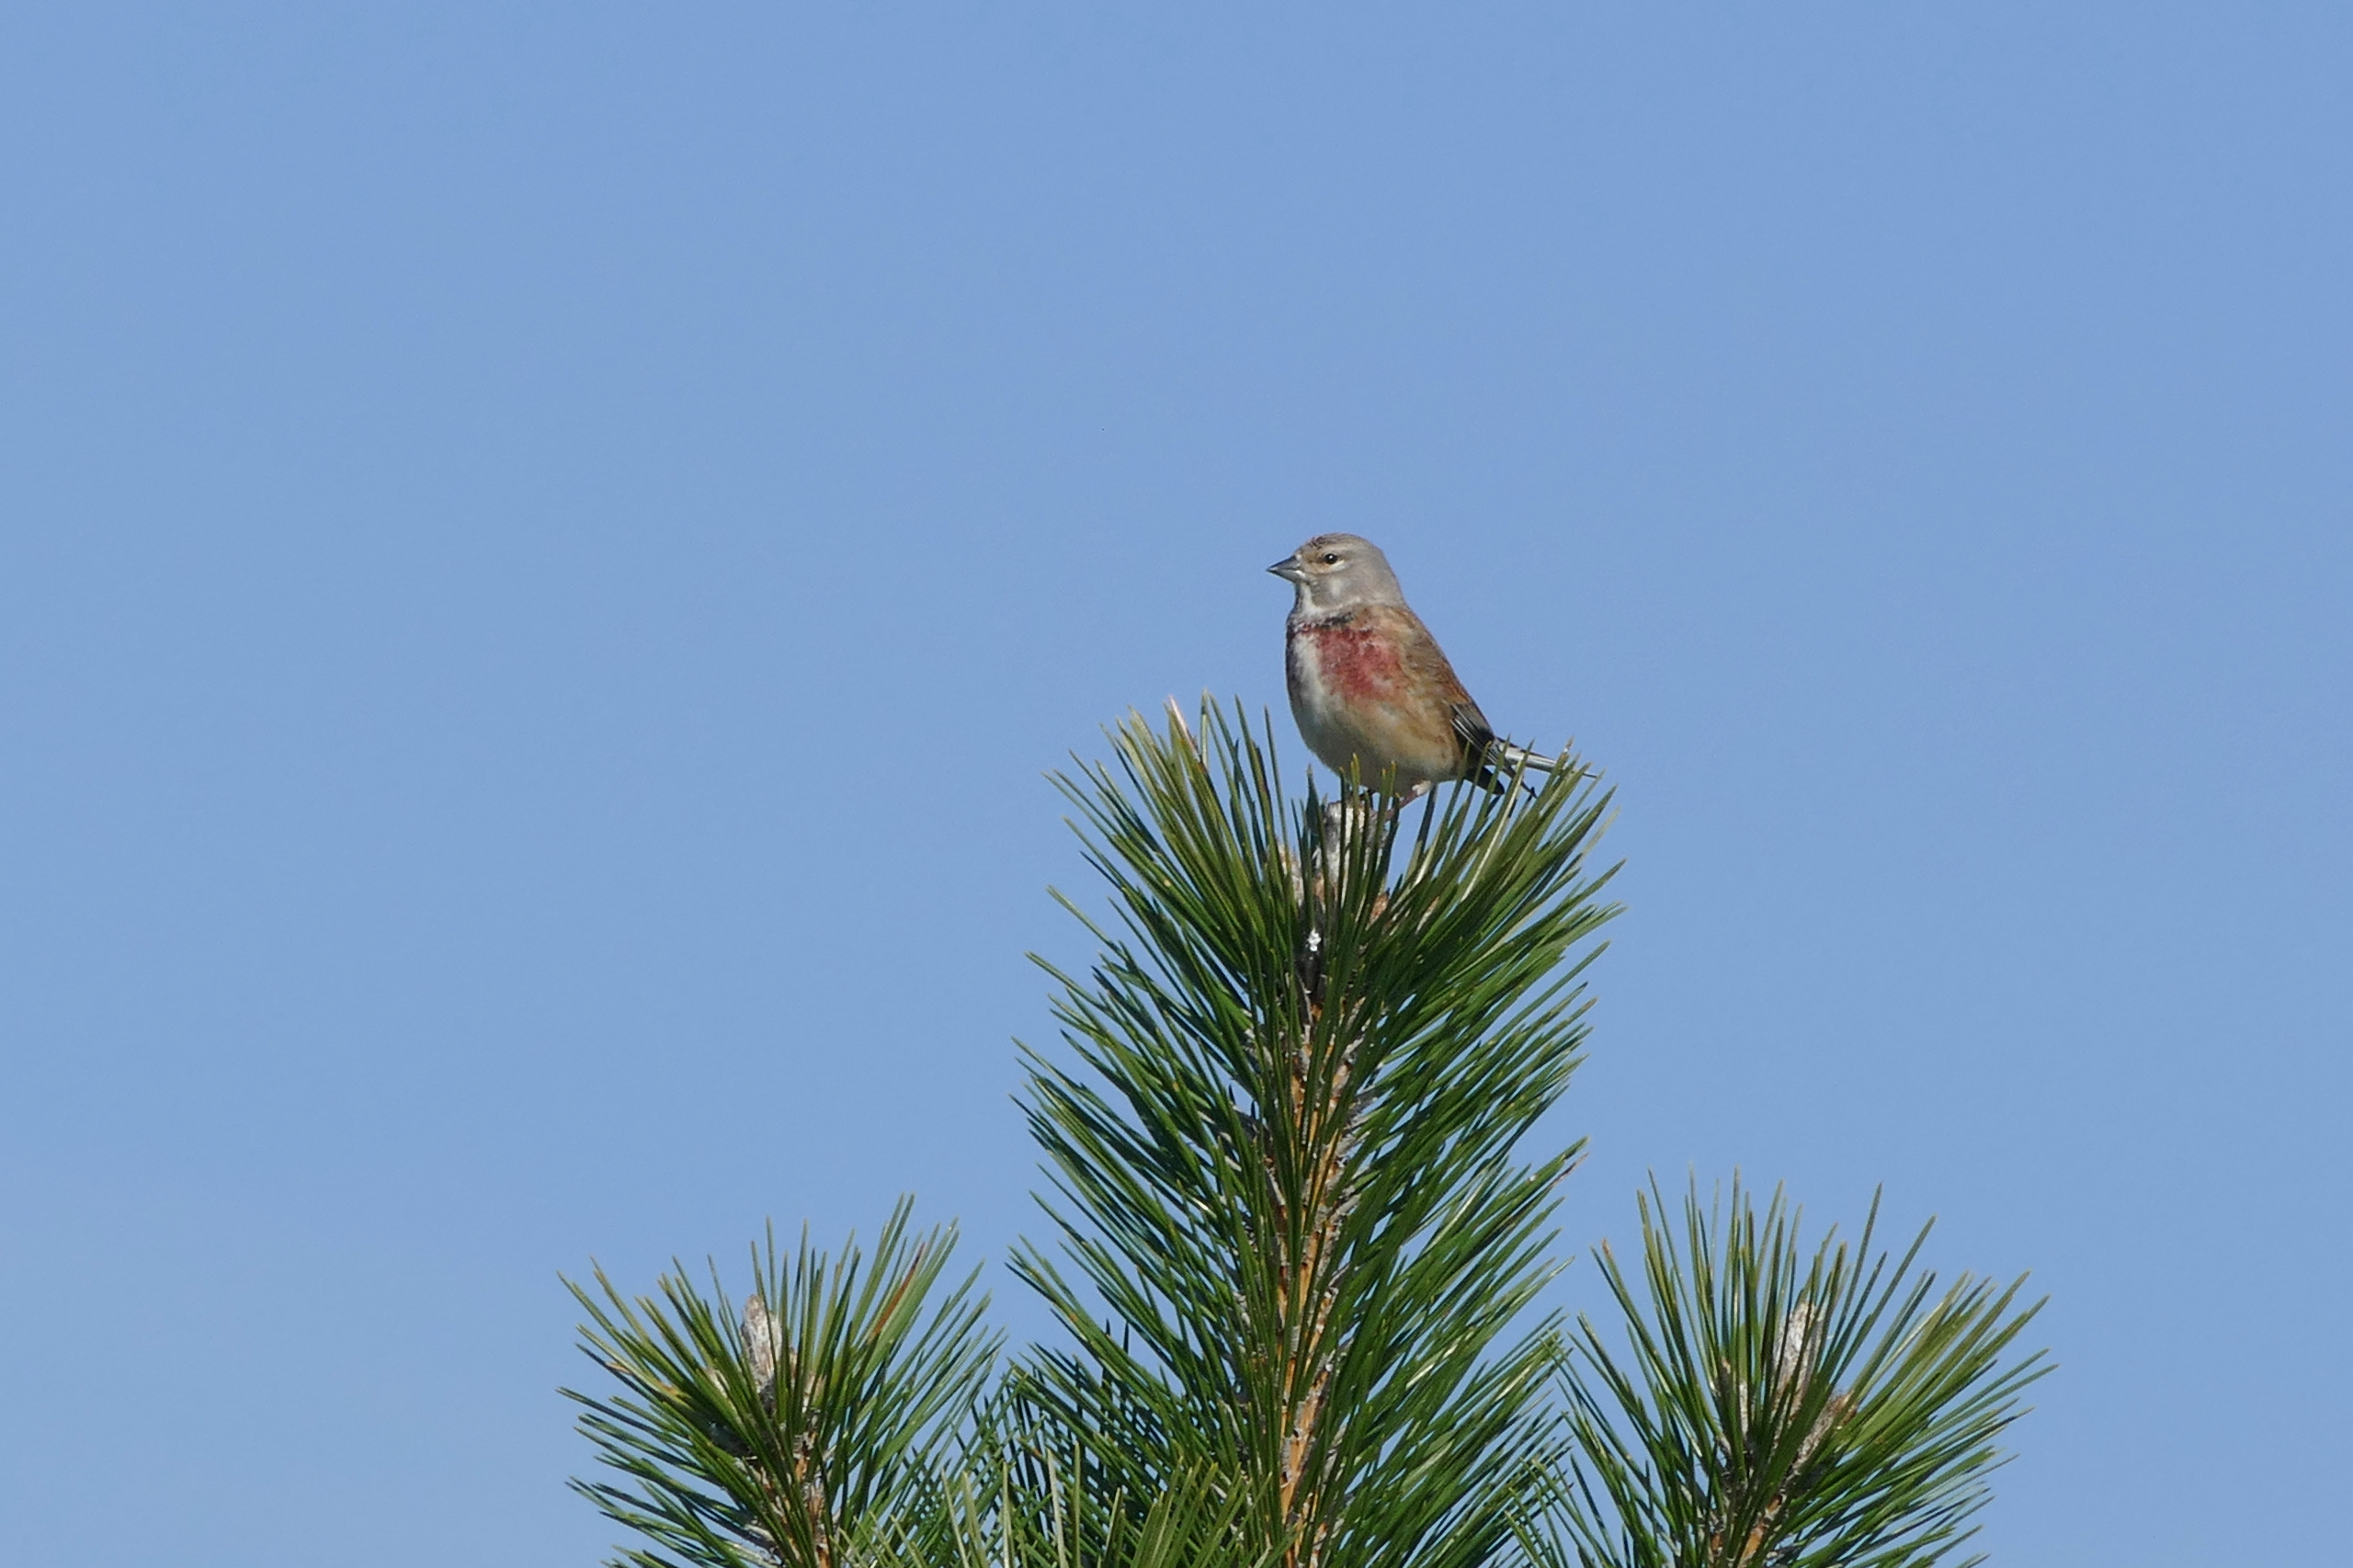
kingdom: Animalia
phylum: Chordata
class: Aves
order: Passeriformes
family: Fringillidae
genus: Linaria
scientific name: Linaria cannabina
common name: Tornirisk
